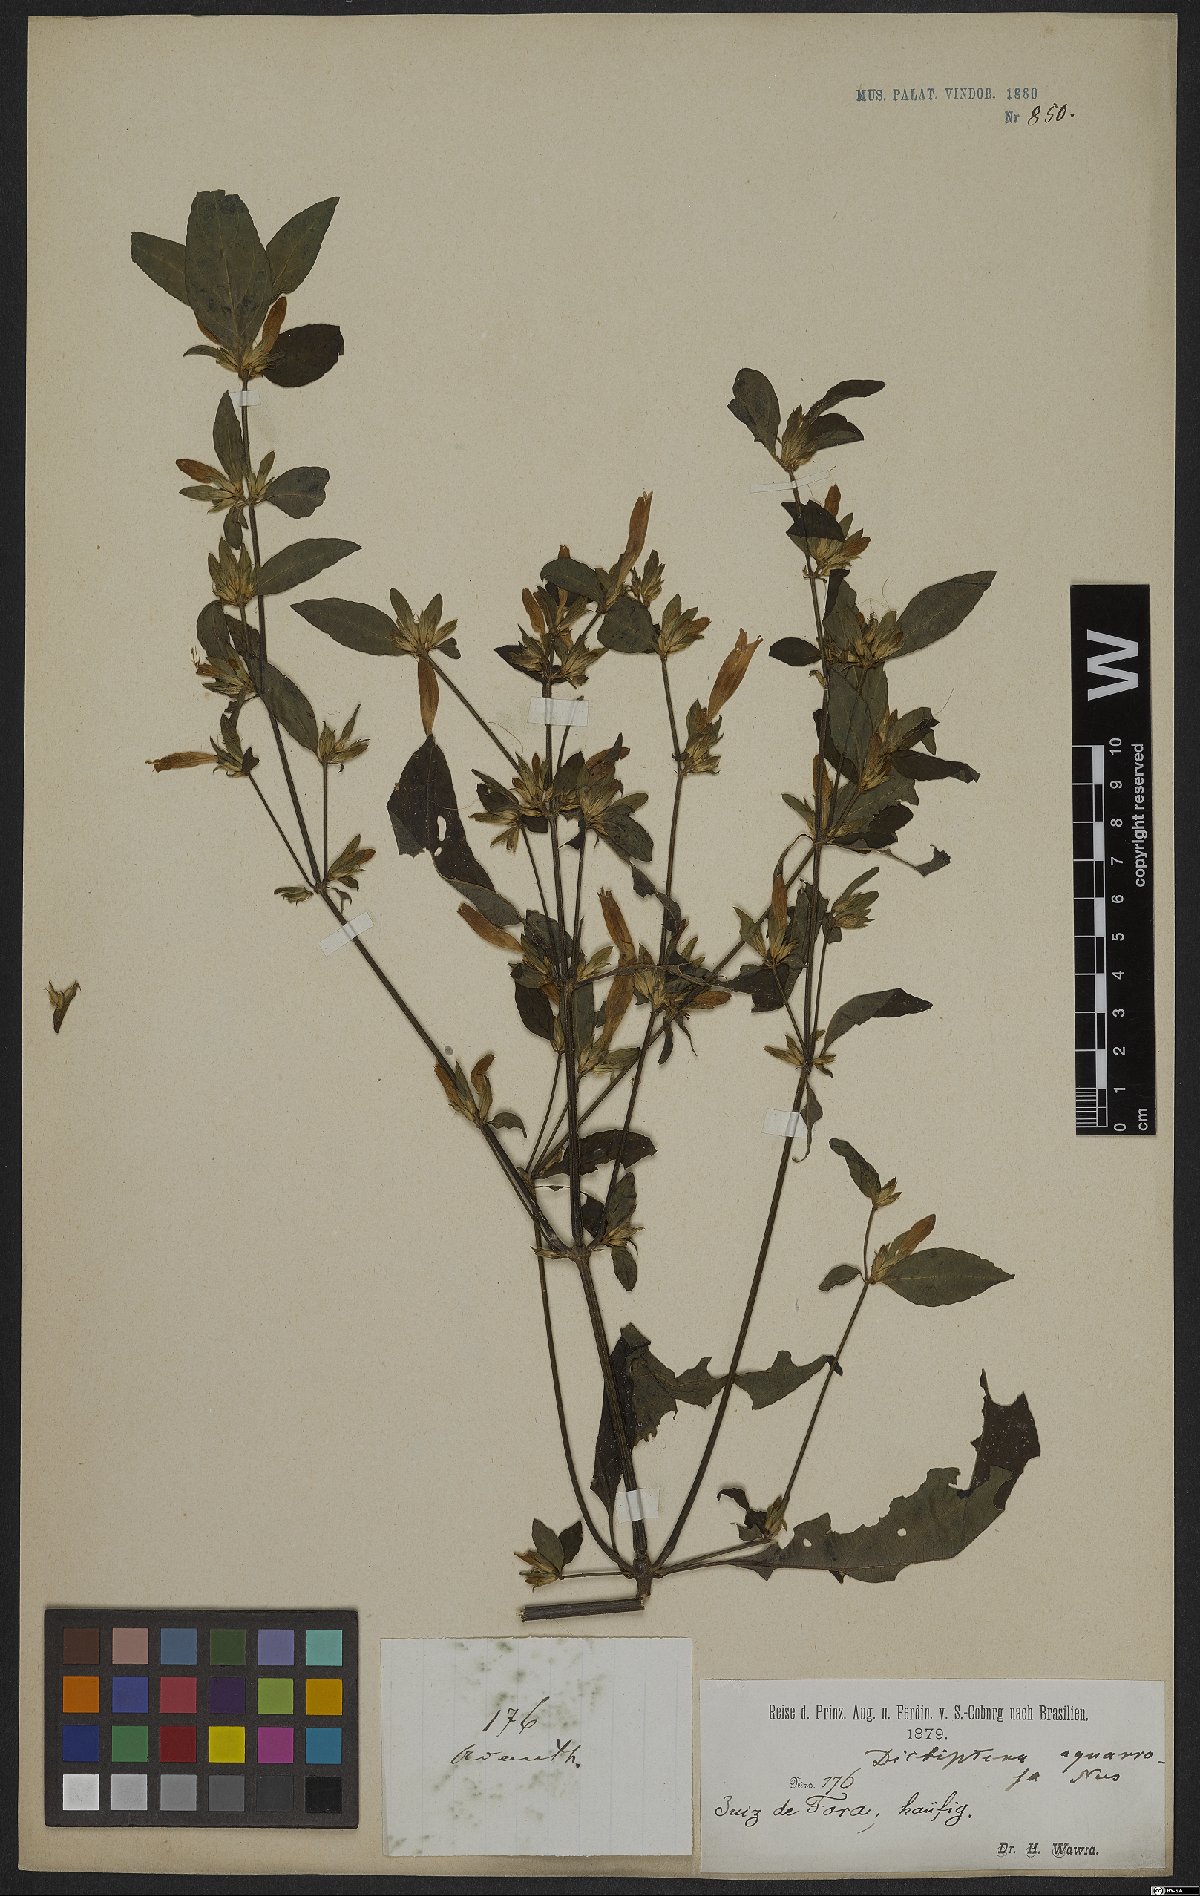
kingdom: Plantae
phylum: Tracheophyta
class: Magnoliopsida
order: Lamiales
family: Acanthaceae
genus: Dicliptera
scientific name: Dicliptera squarrosa
